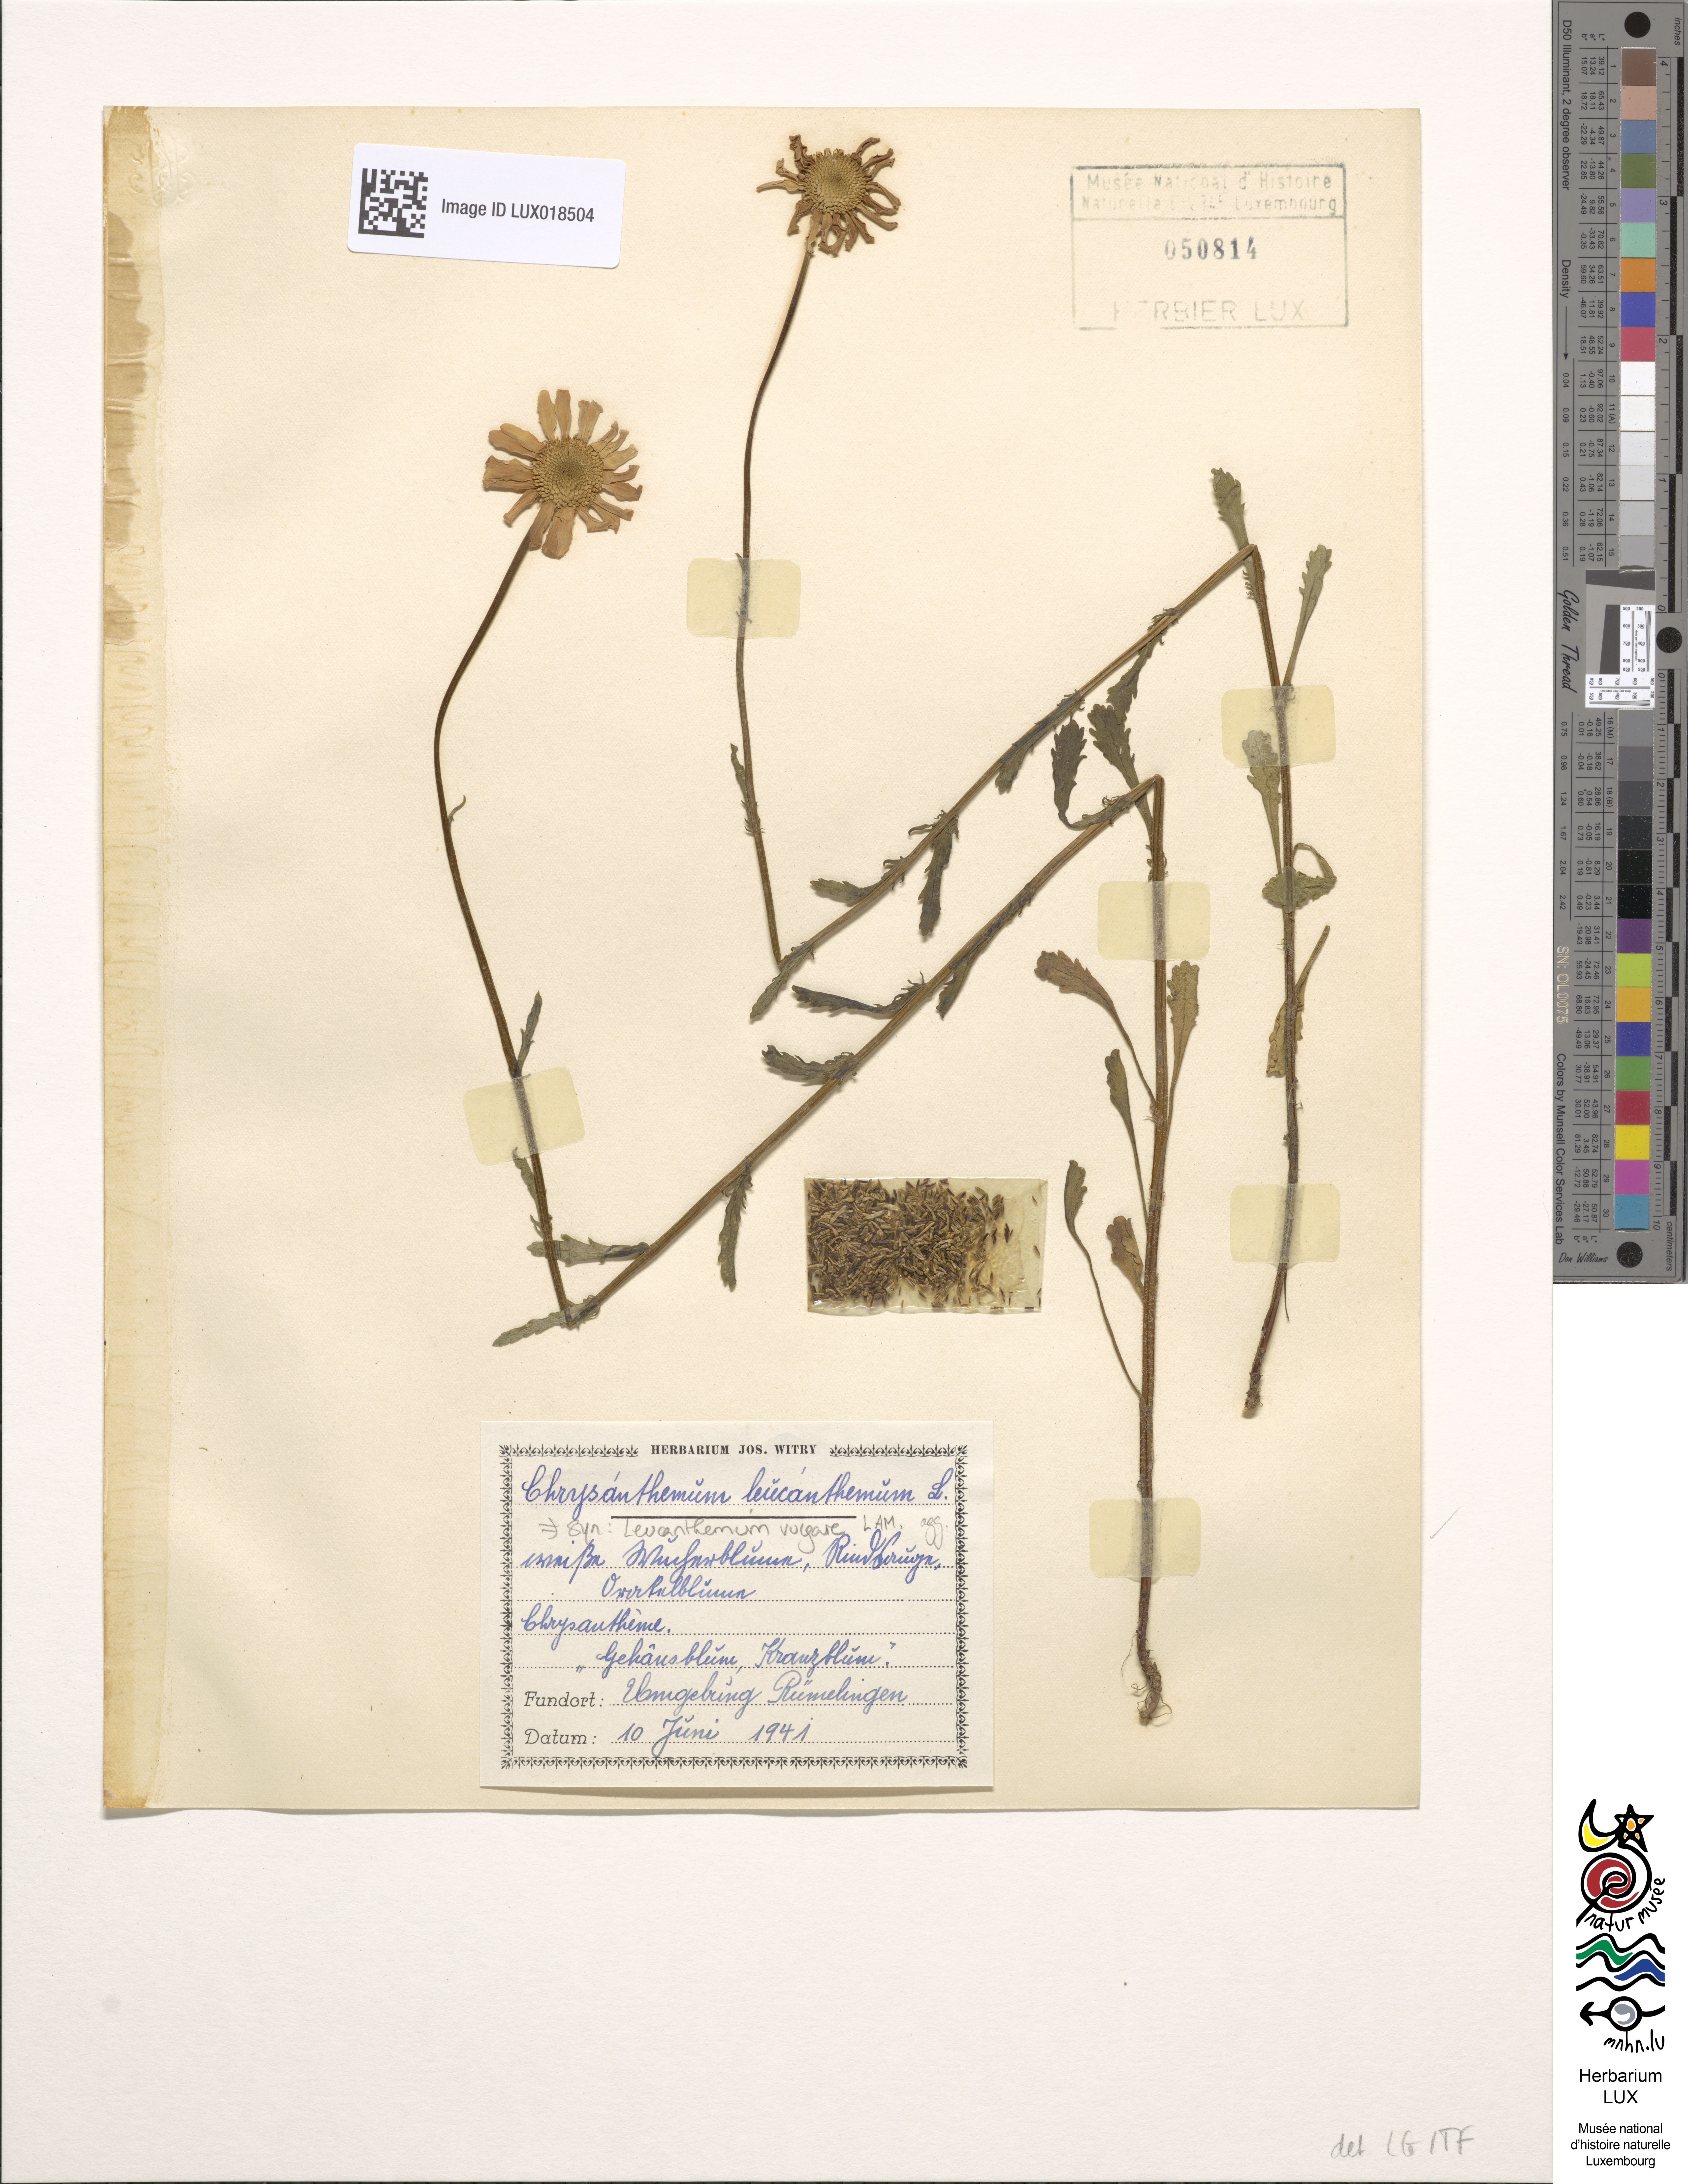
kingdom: Plantae
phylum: Tracheophyta
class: Magnoliopsida
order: Asterales
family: Asteraceae
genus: Leucanthemum
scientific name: Leucanthemum vulgare
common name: Oxeye daisy
